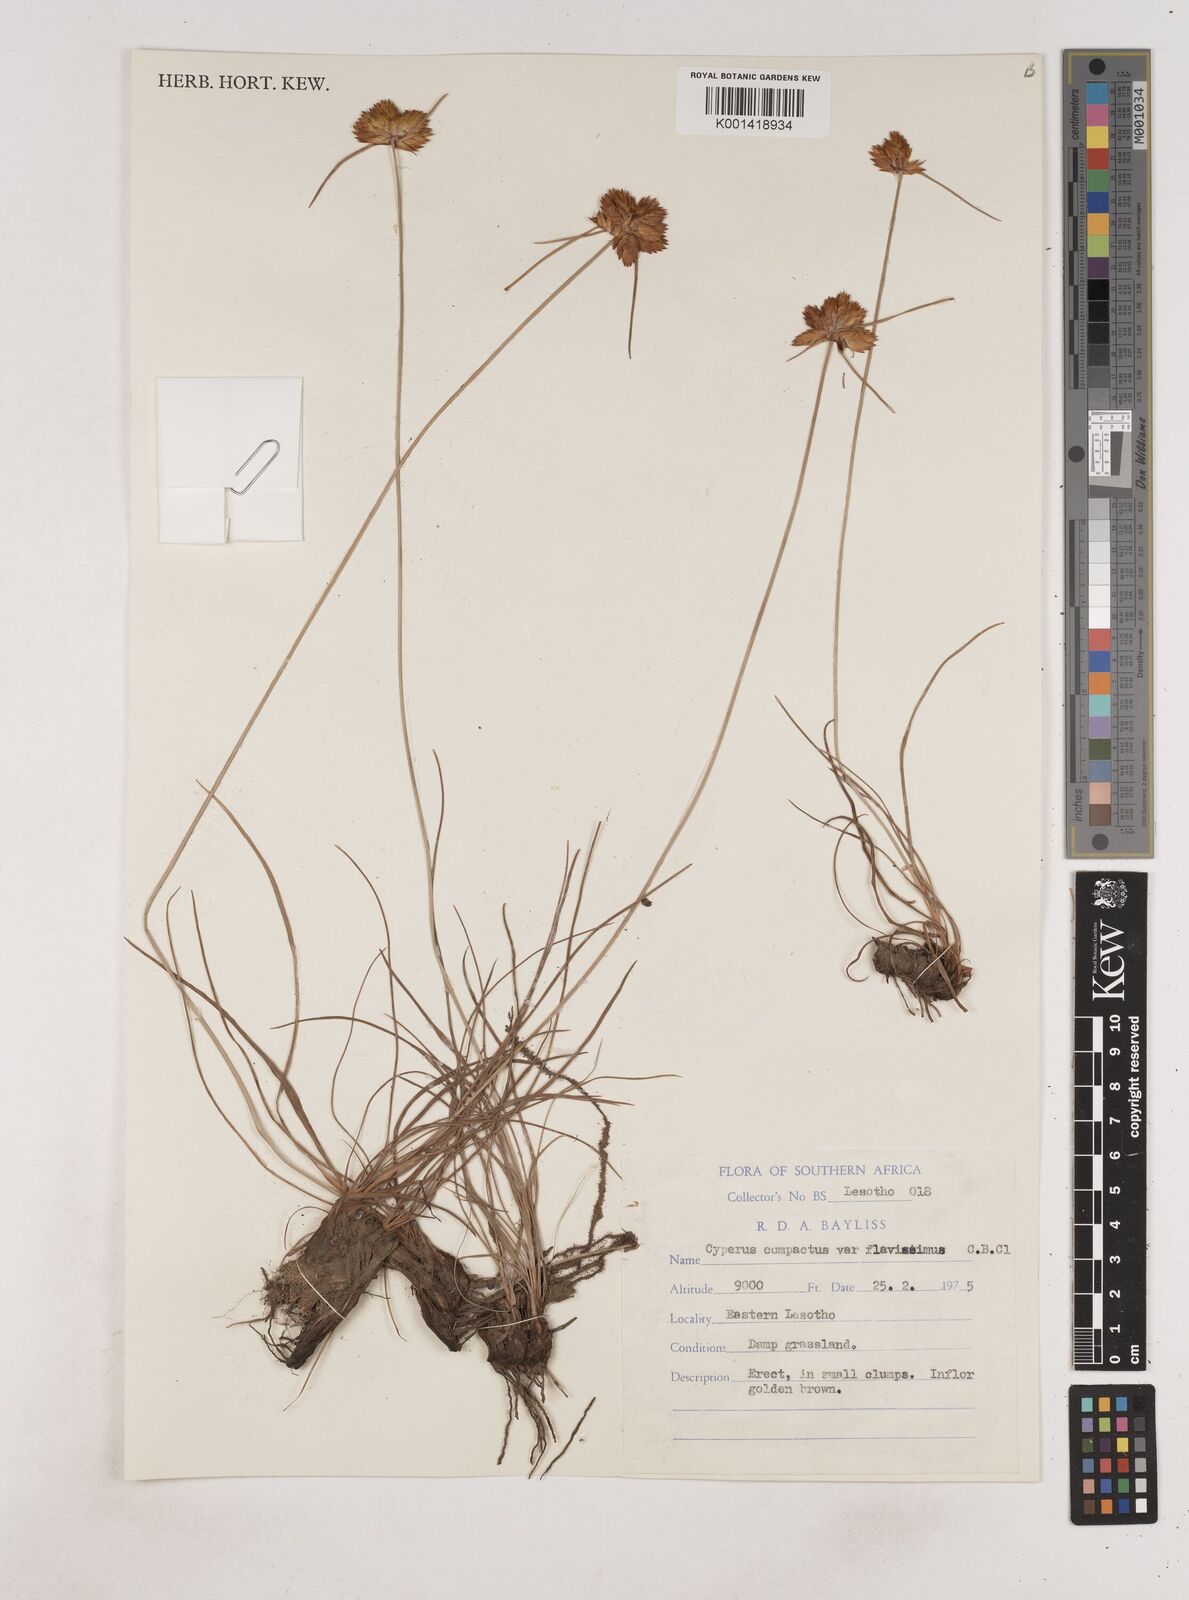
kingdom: Plantae
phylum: Tracheophyta
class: Liliopsida
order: Poales
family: Cyperaceae
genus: Cyperus
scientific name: Cyperus sphaerocephalus
